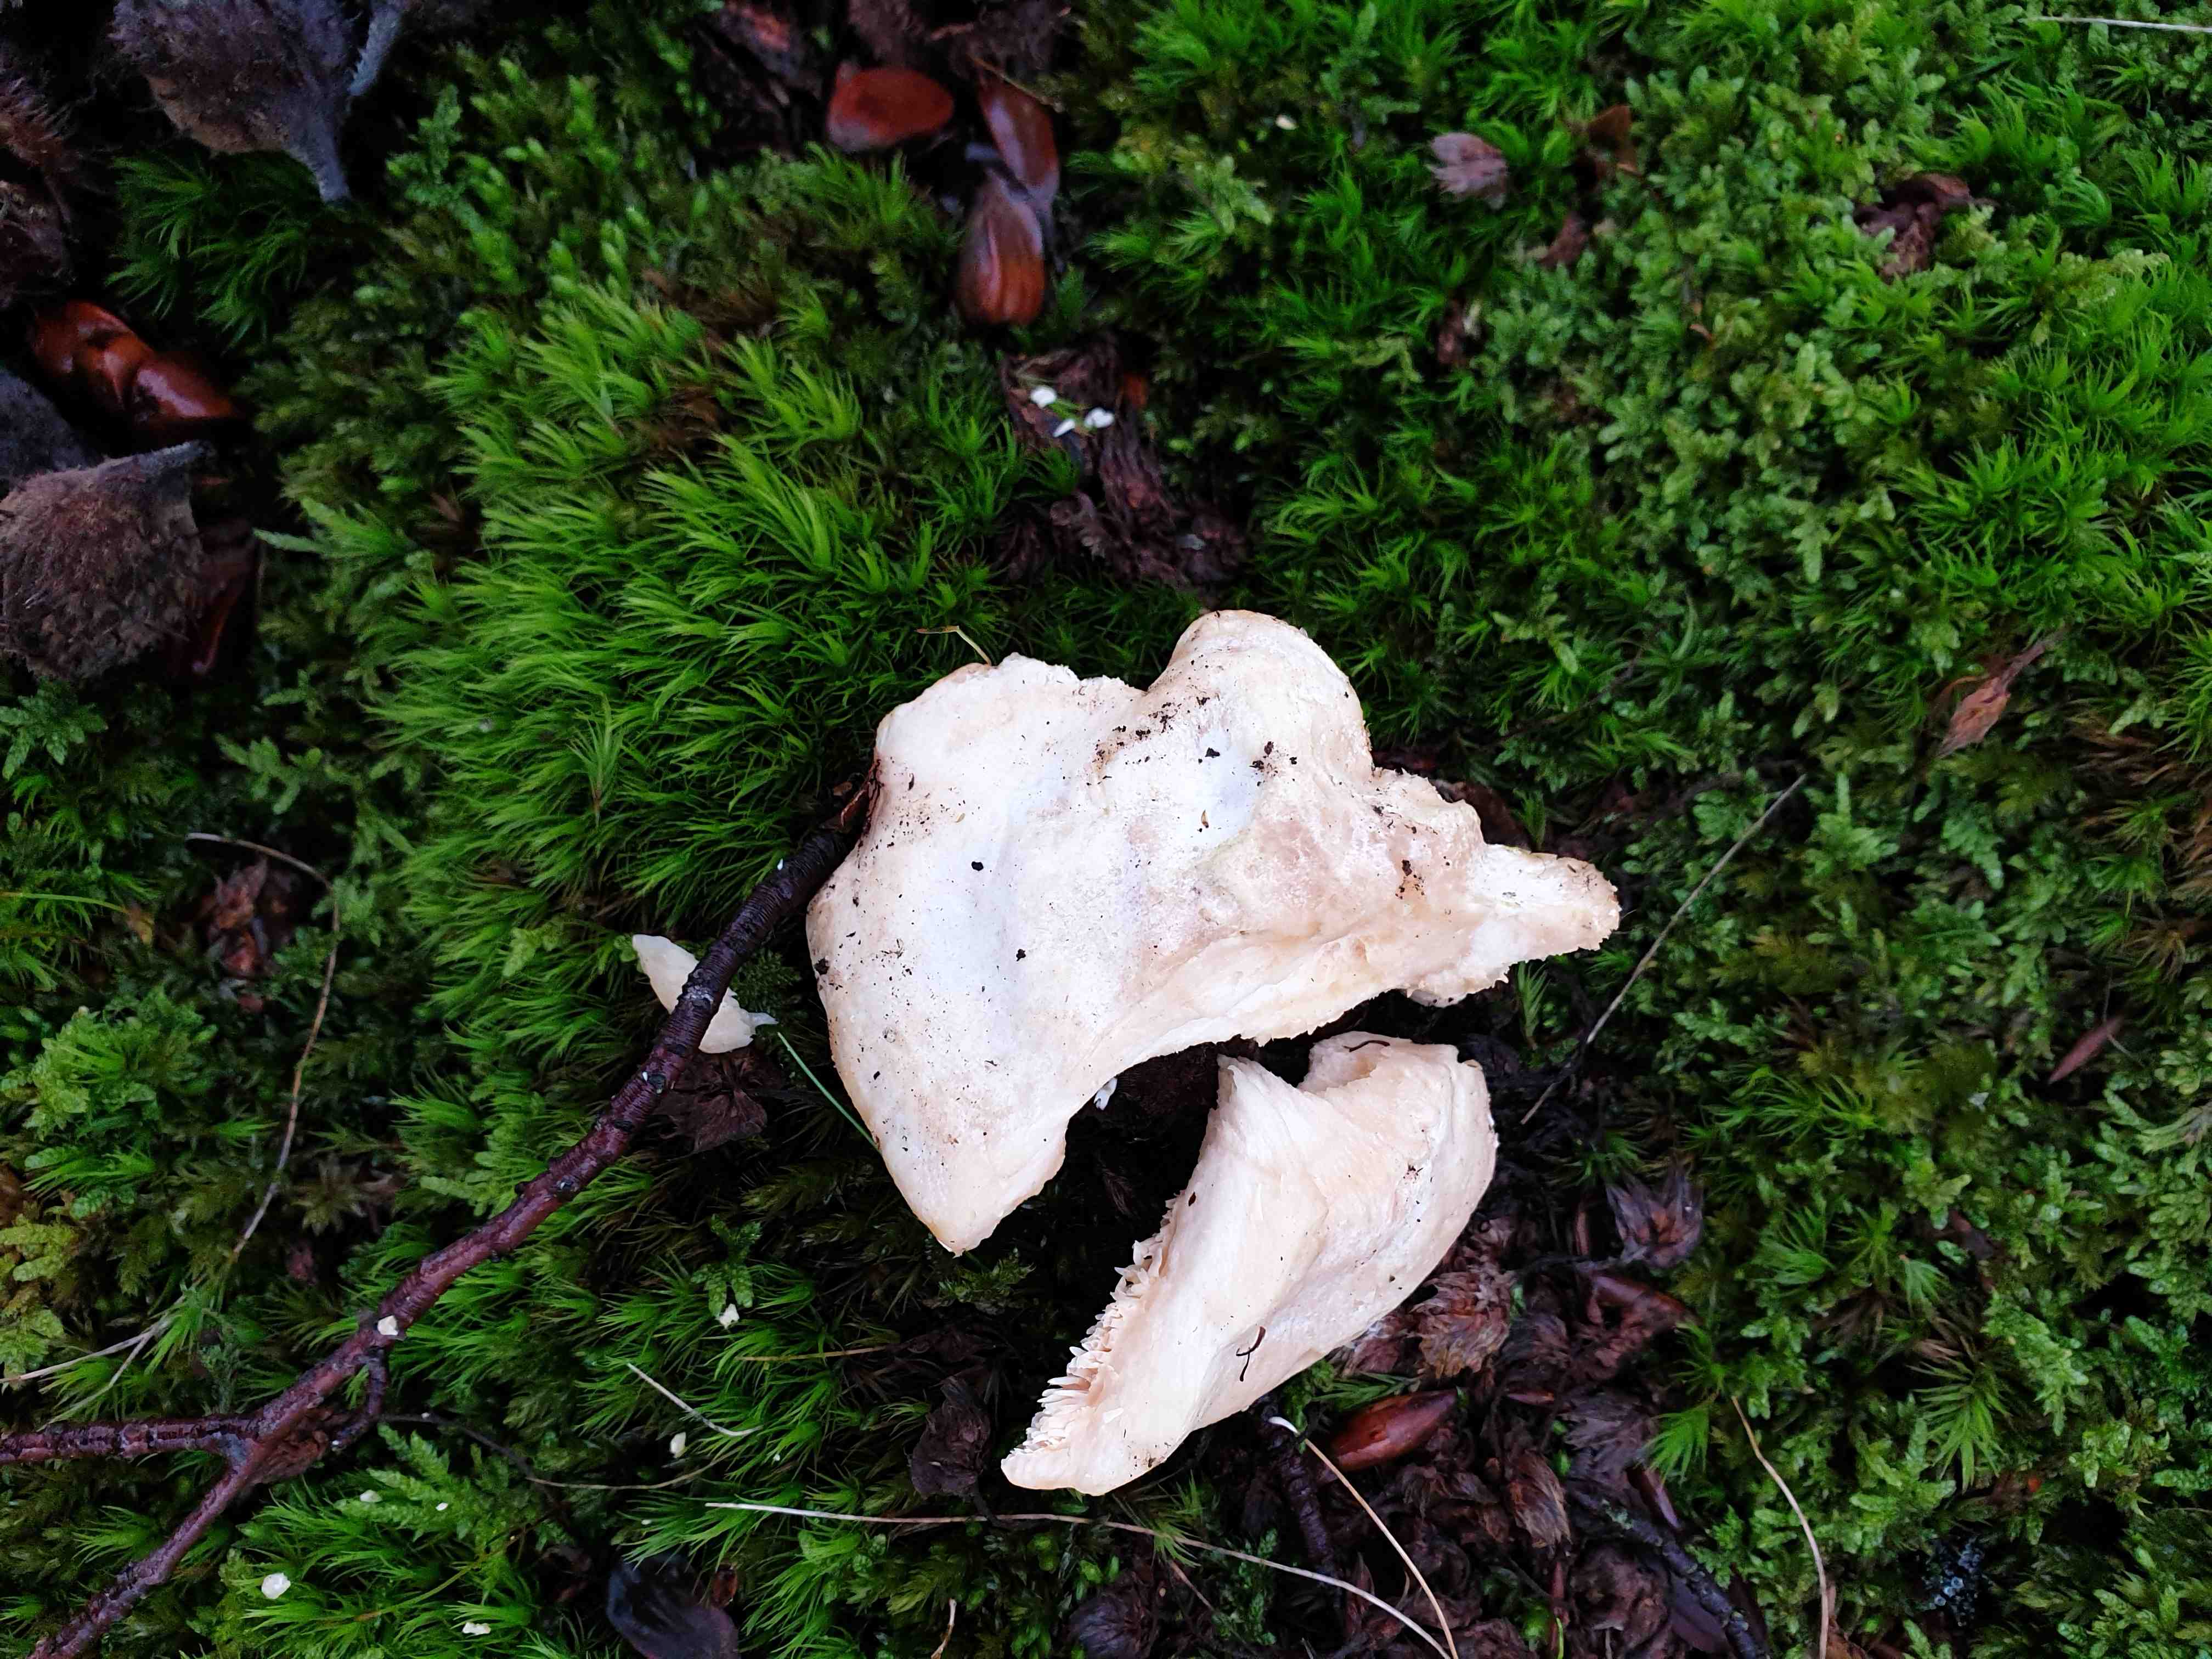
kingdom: Fungi
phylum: Basidiomycota
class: Agaricomycetes
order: Cantharellales
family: Hydnaceae
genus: Hydnum
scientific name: Hydnum
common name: pigsvamp
